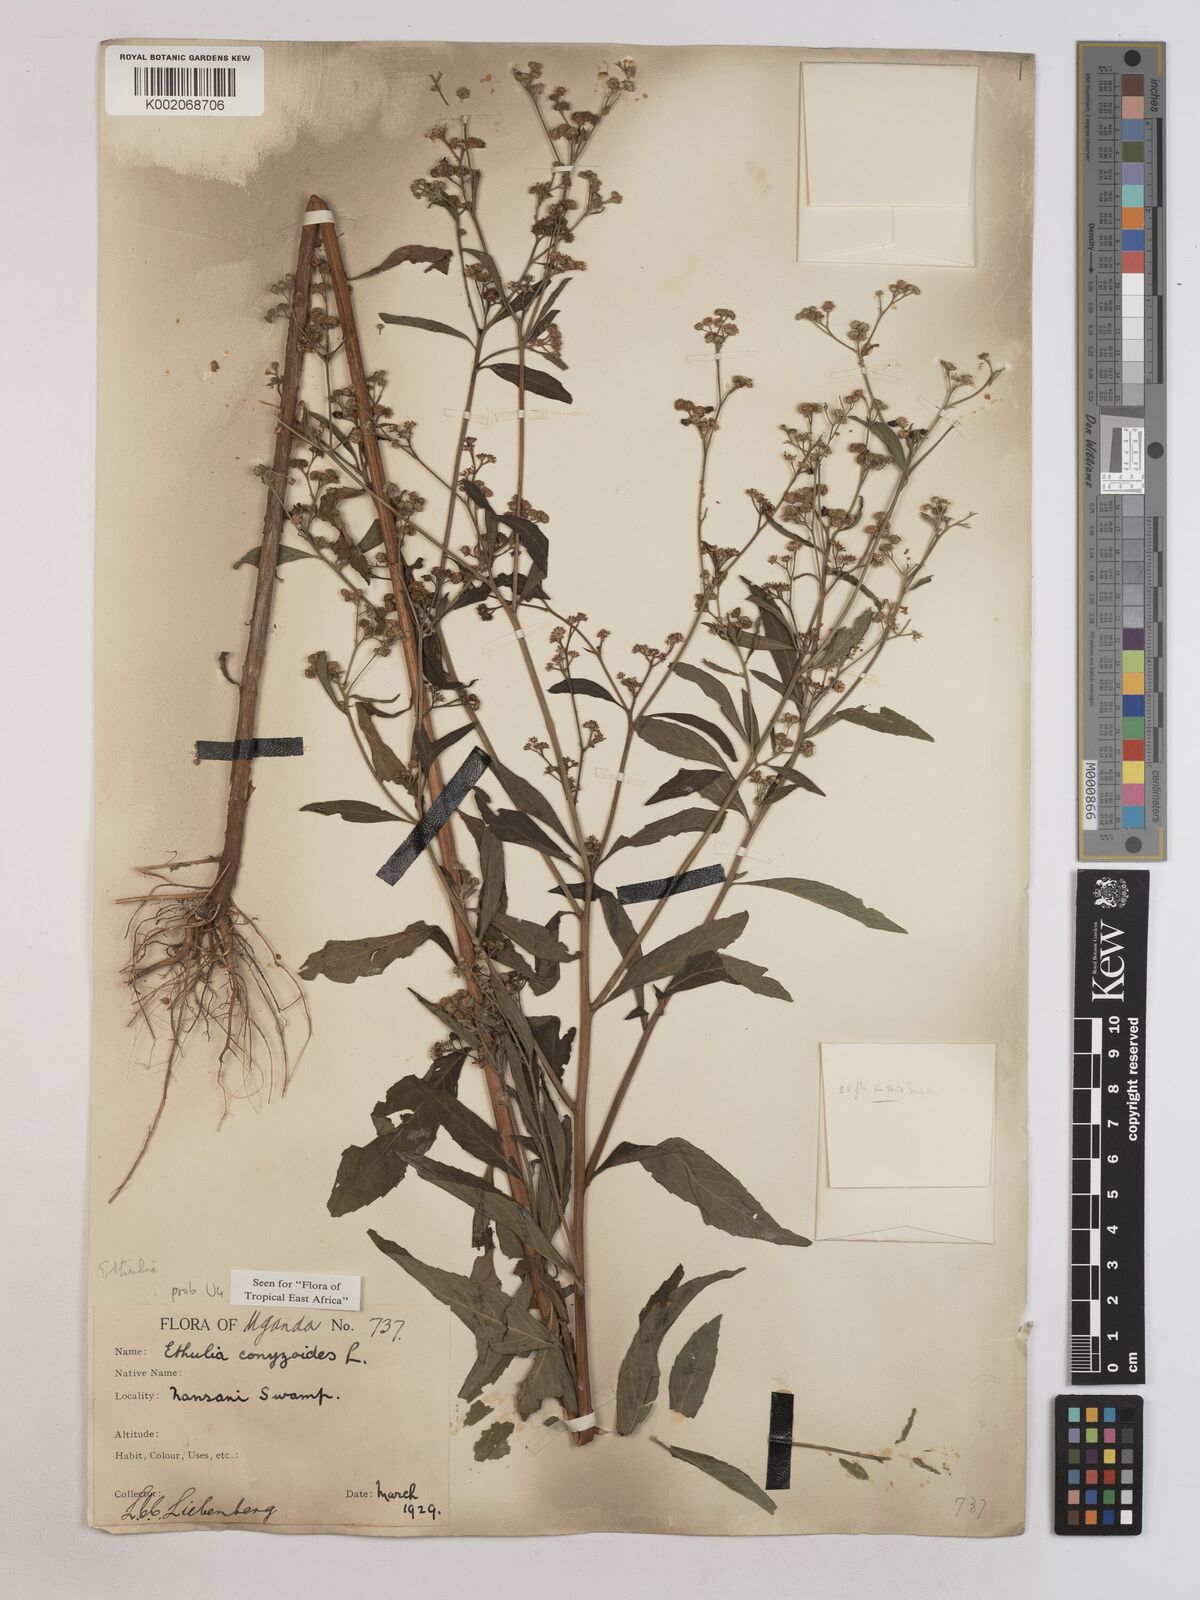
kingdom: Plantae
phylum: Tracheophyta
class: Magnoliopsida
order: Asterales
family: Asteraceae
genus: Ethulia
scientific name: Ethulia conyzoides
